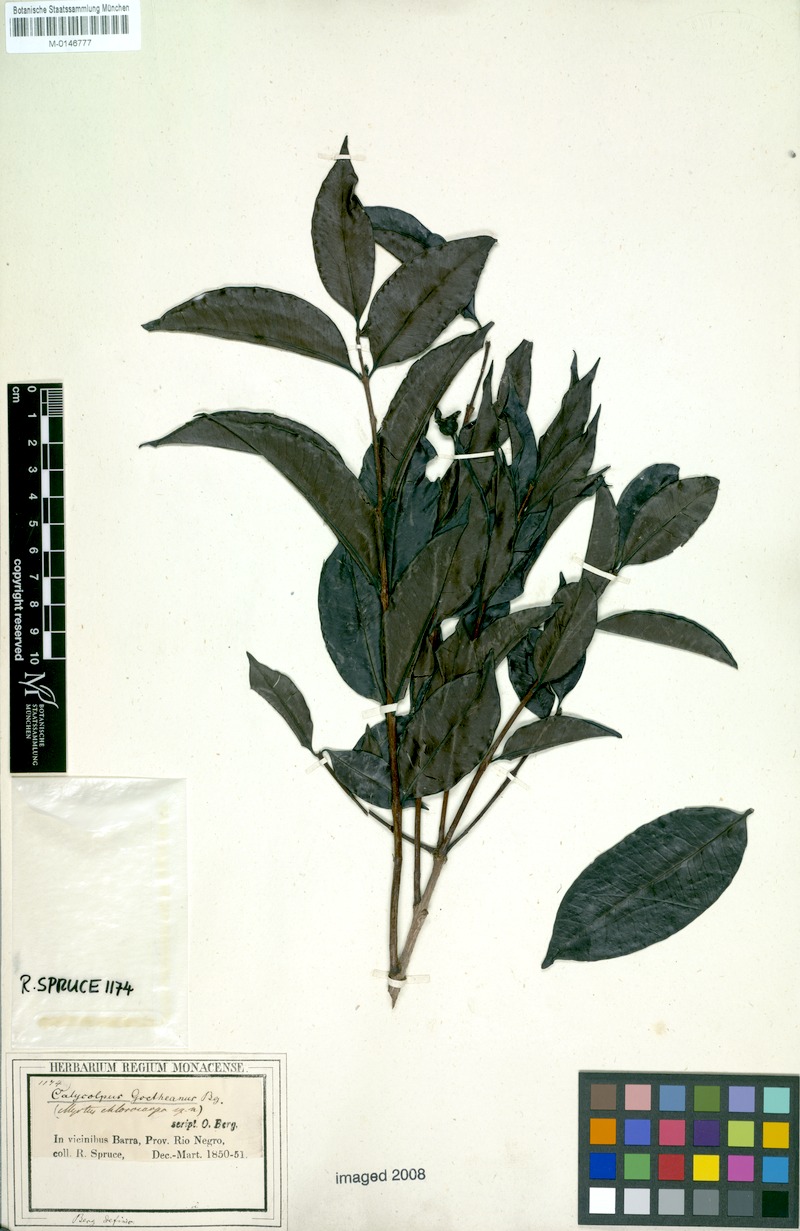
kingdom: Plantae
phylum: Tracheophyta
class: Magnoliopsida
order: Myrtales
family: Myrtaceae
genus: Calycolpus
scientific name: Calycolpus goetheanus
